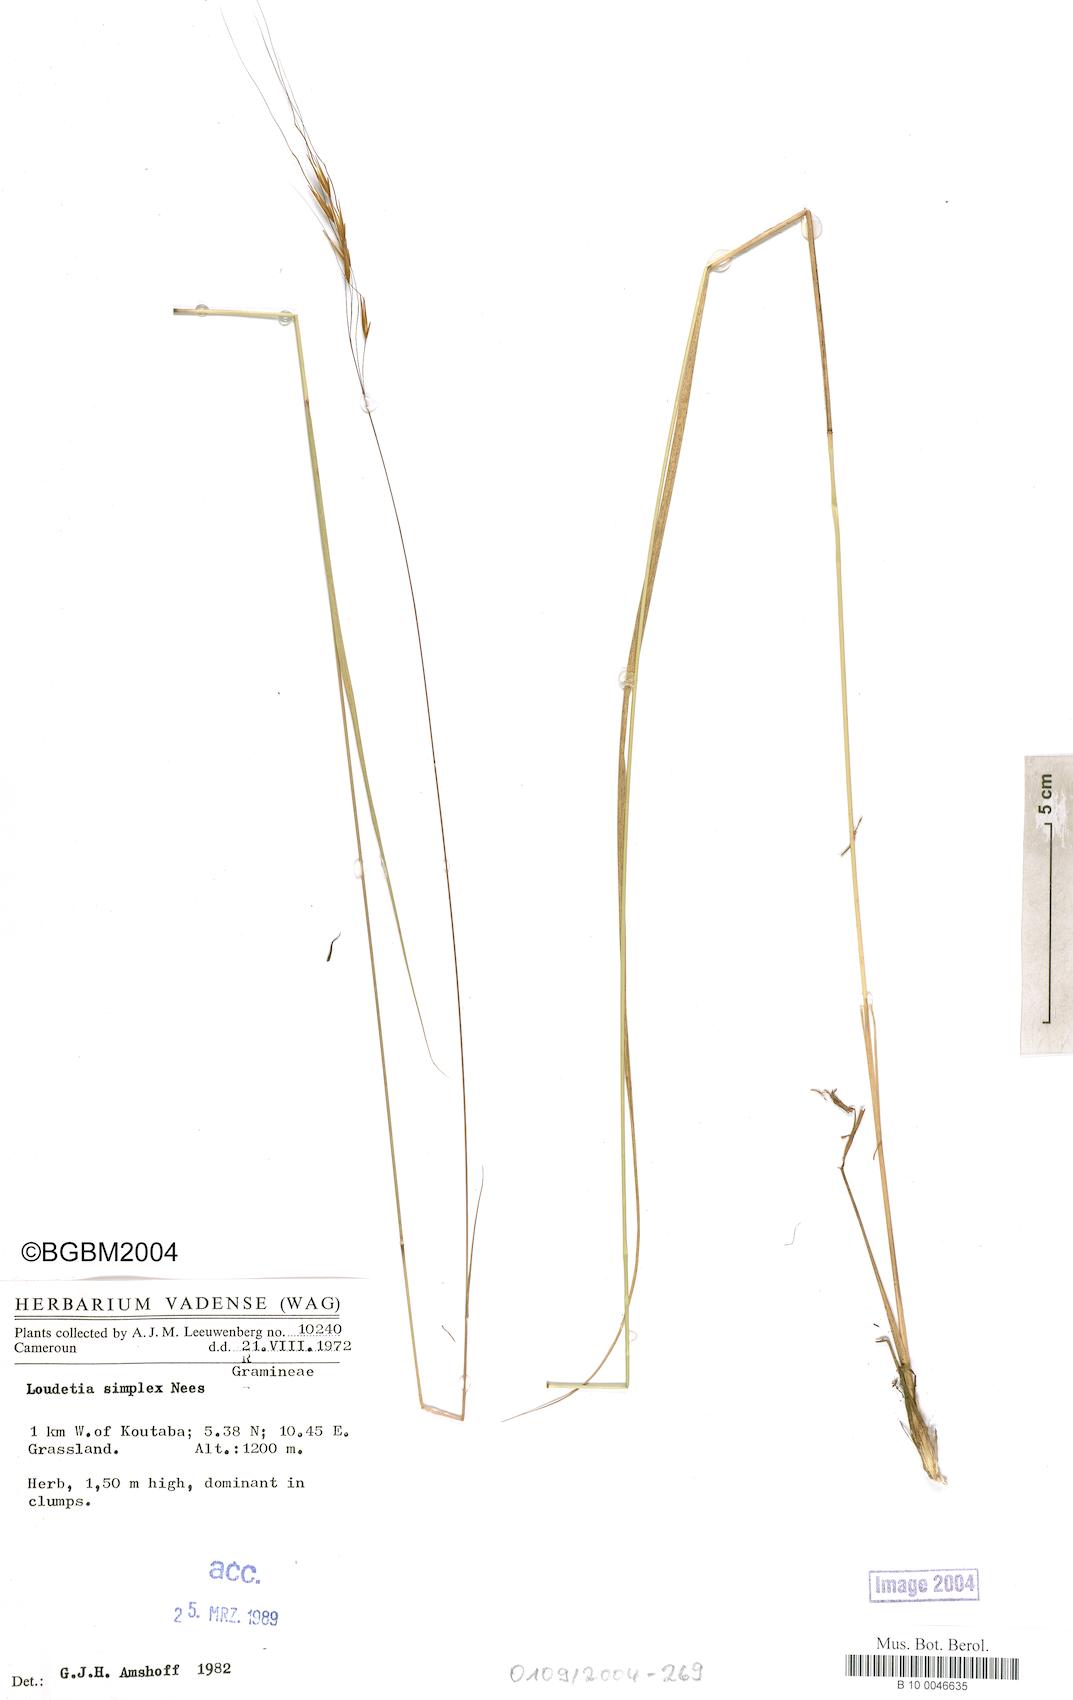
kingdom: Plantae
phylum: Tracheophyta
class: Liliopsida
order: Poales
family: Poaceae
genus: Loudetia
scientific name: Loudetia simplex
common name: Common russet grass
